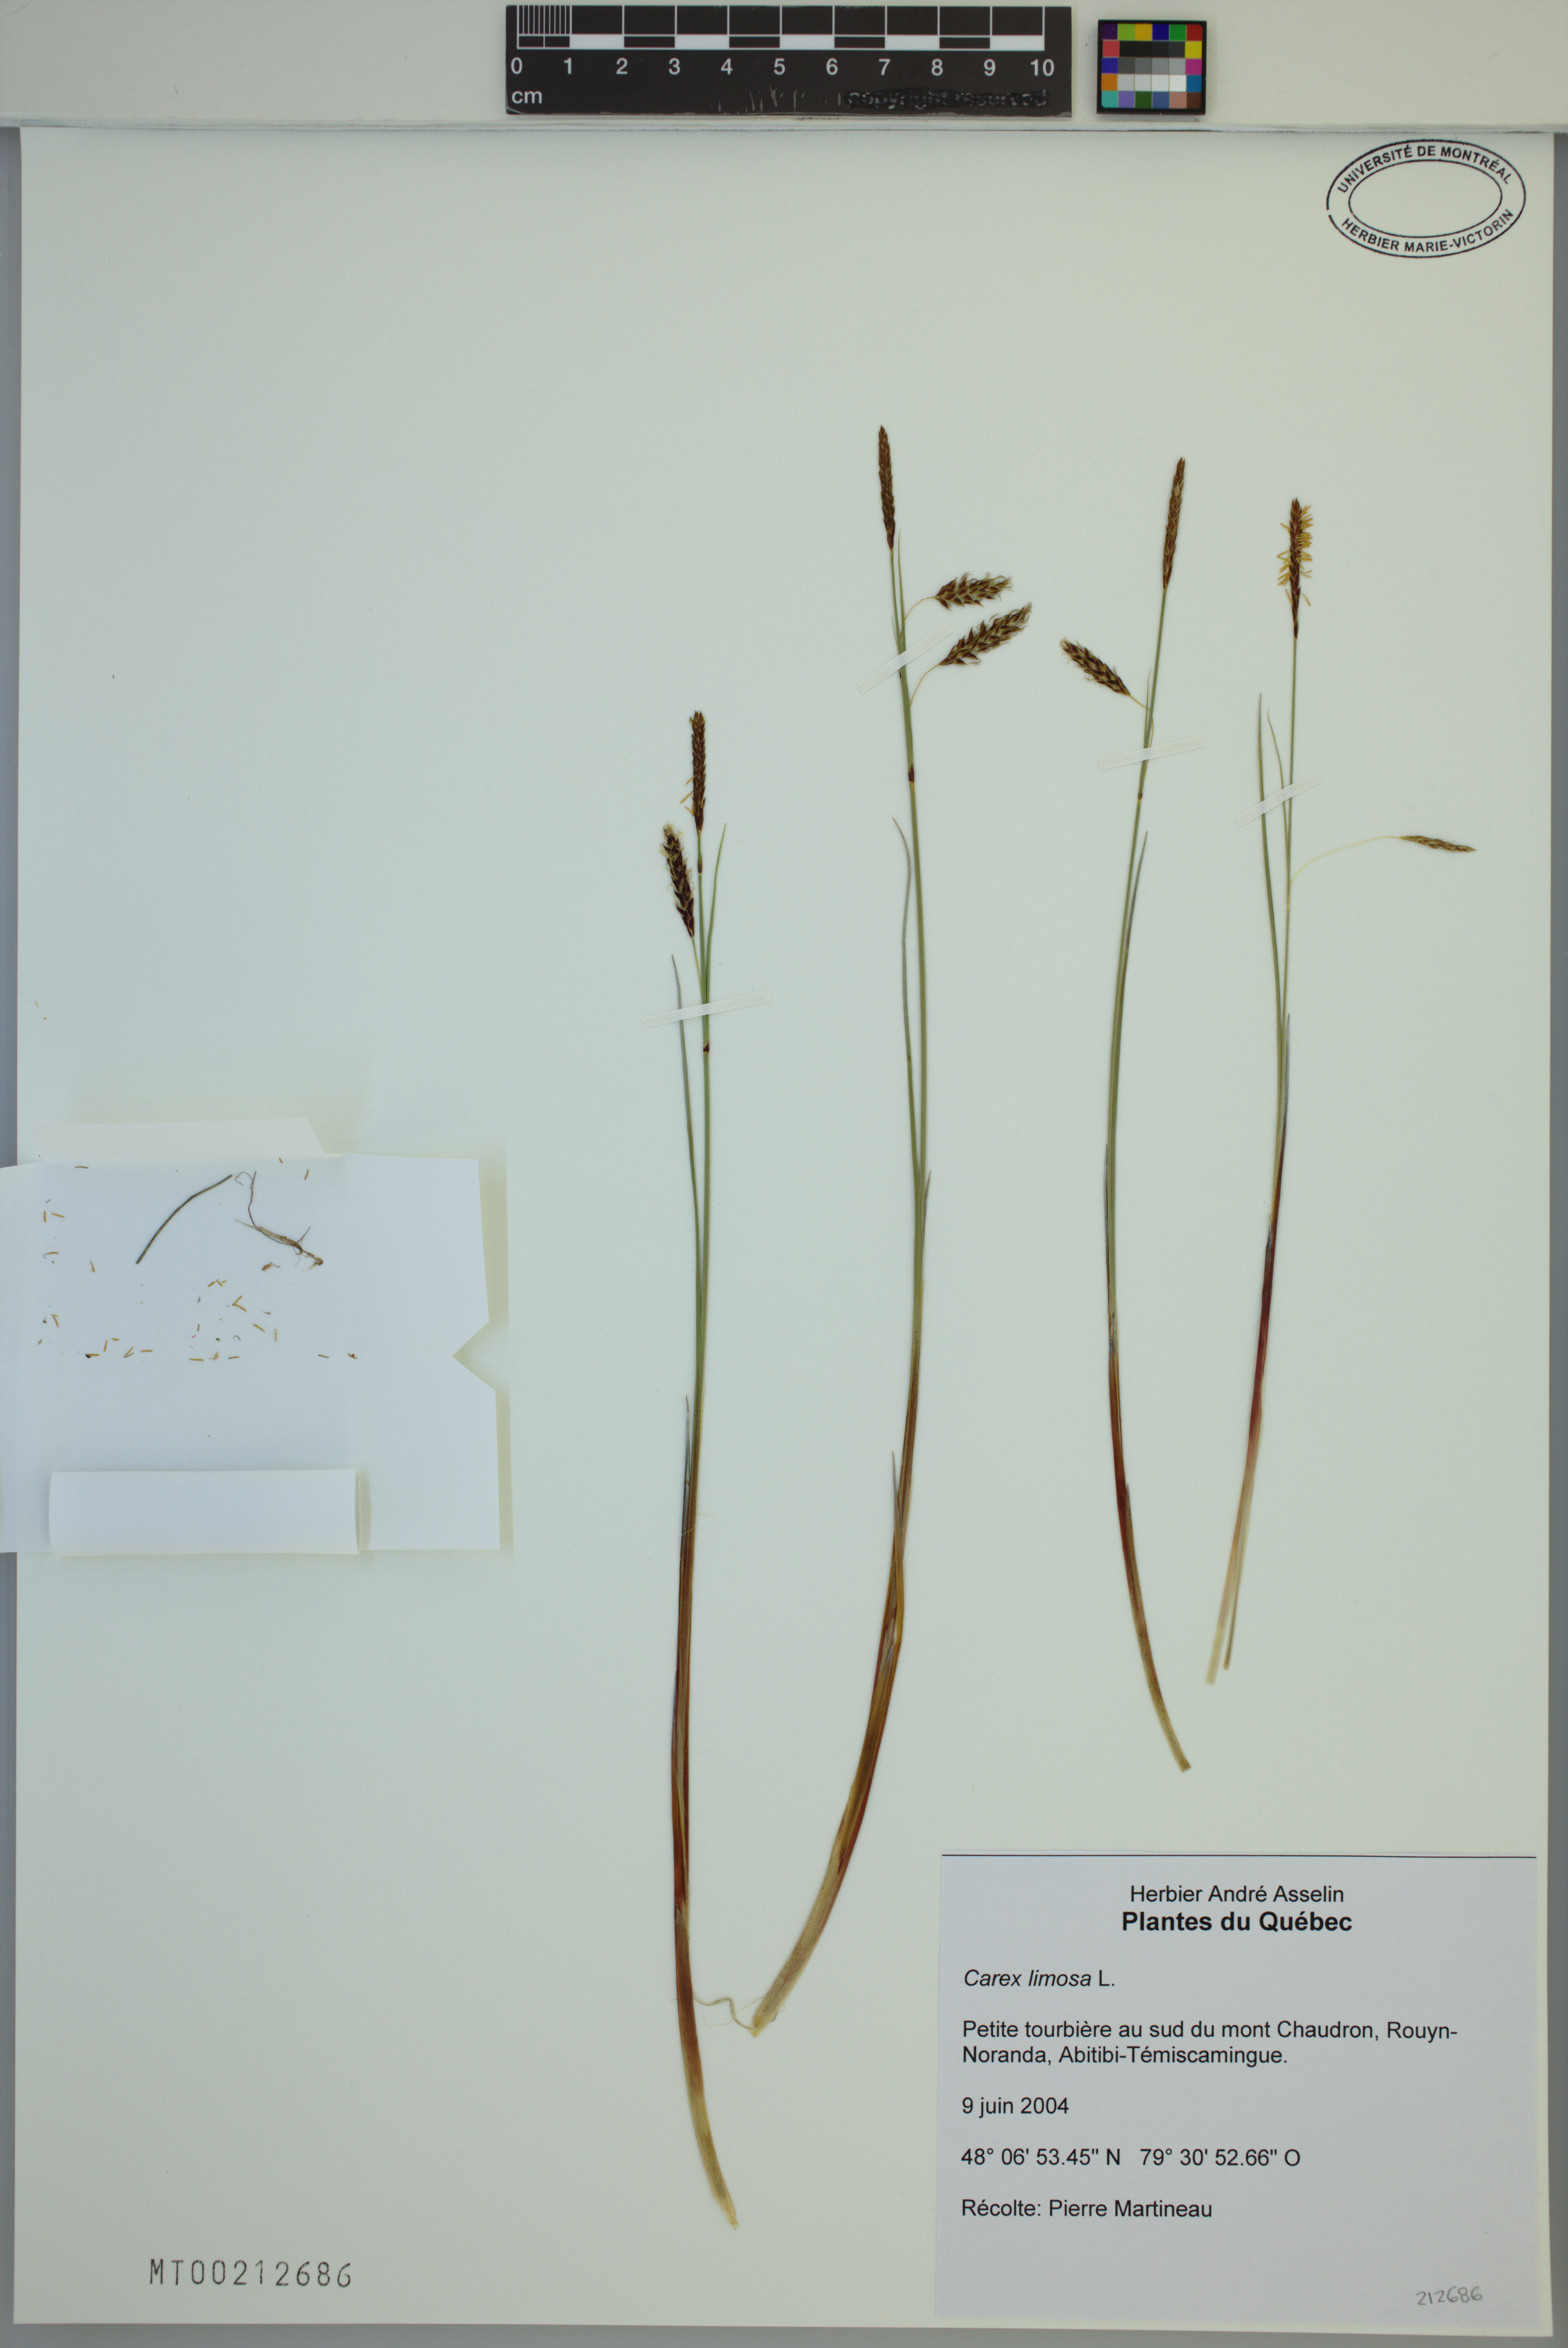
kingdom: Plantae
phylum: Tracheophyta
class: Liliopsida
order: Poales
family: Cyperaceae
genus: Carex
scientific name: Carex limosa
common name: Bog sedge
